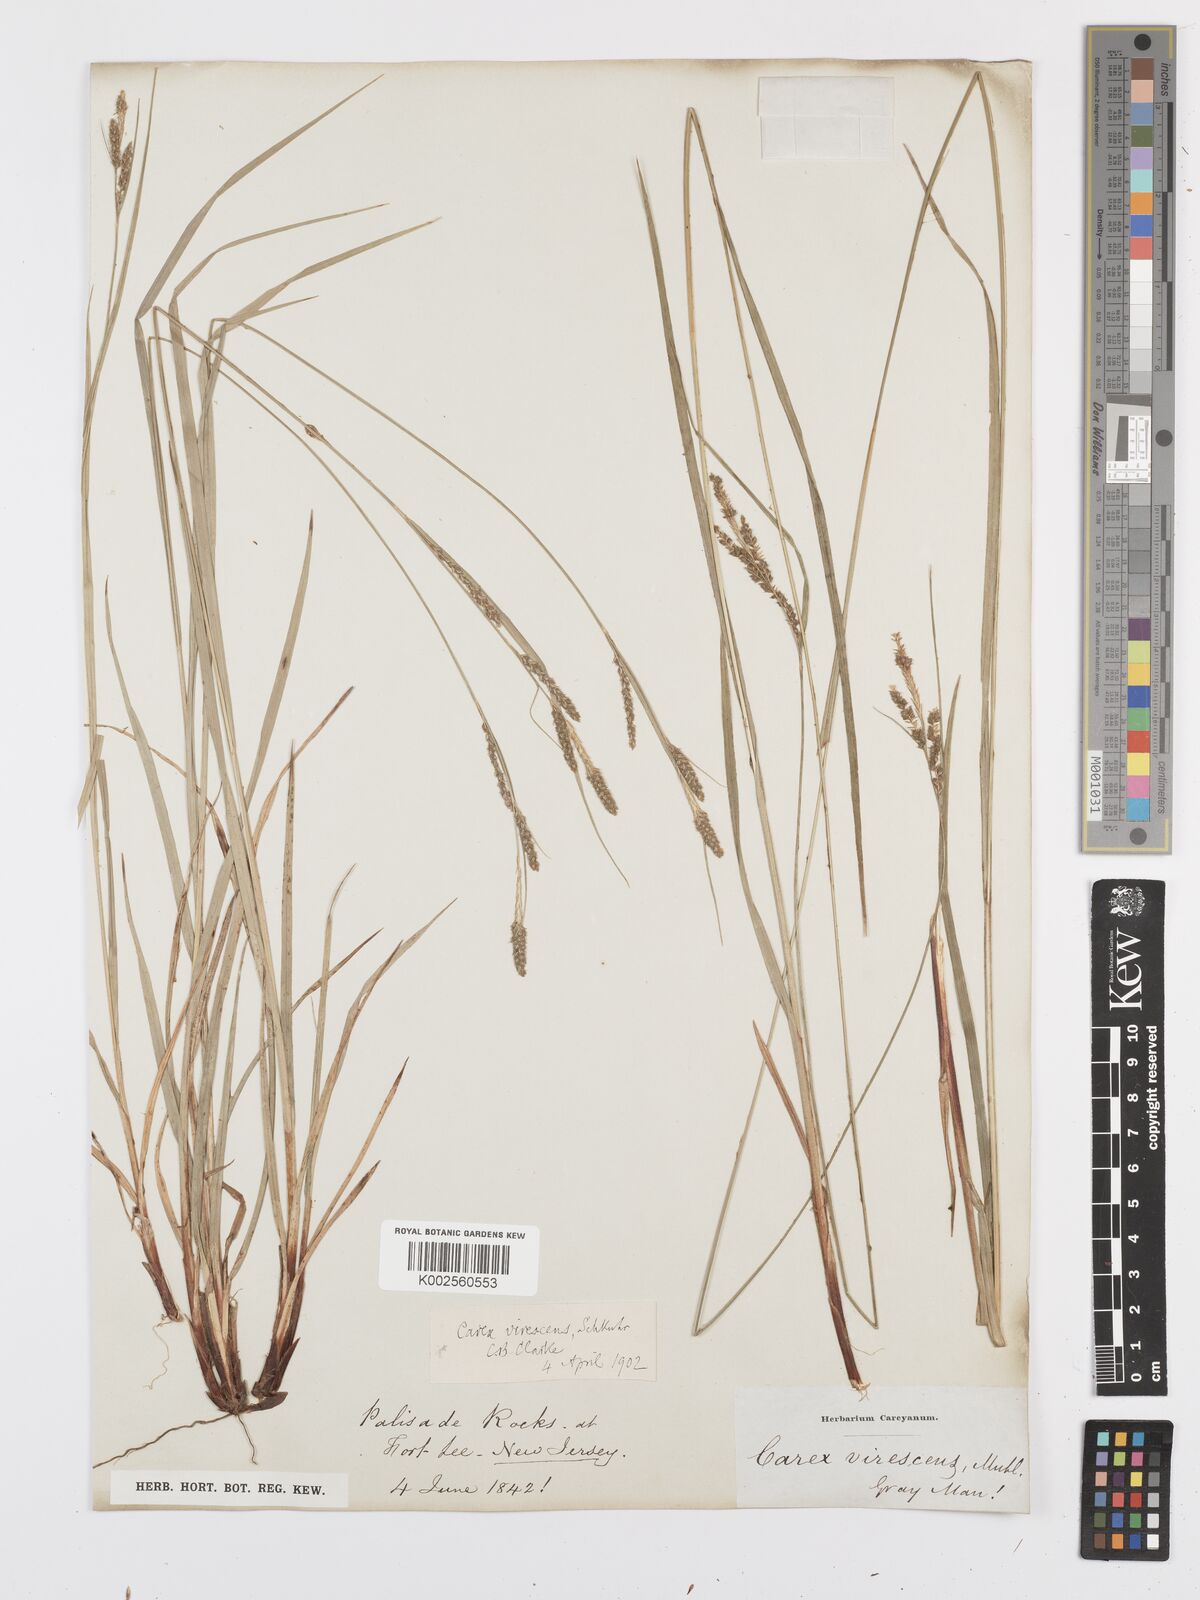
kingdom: Plantae
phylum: Tracheophyta
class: Liliopsida
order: Poales
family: Cyperaceae
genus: Carex
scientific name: Carex virescens
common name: Ribbed sedge
